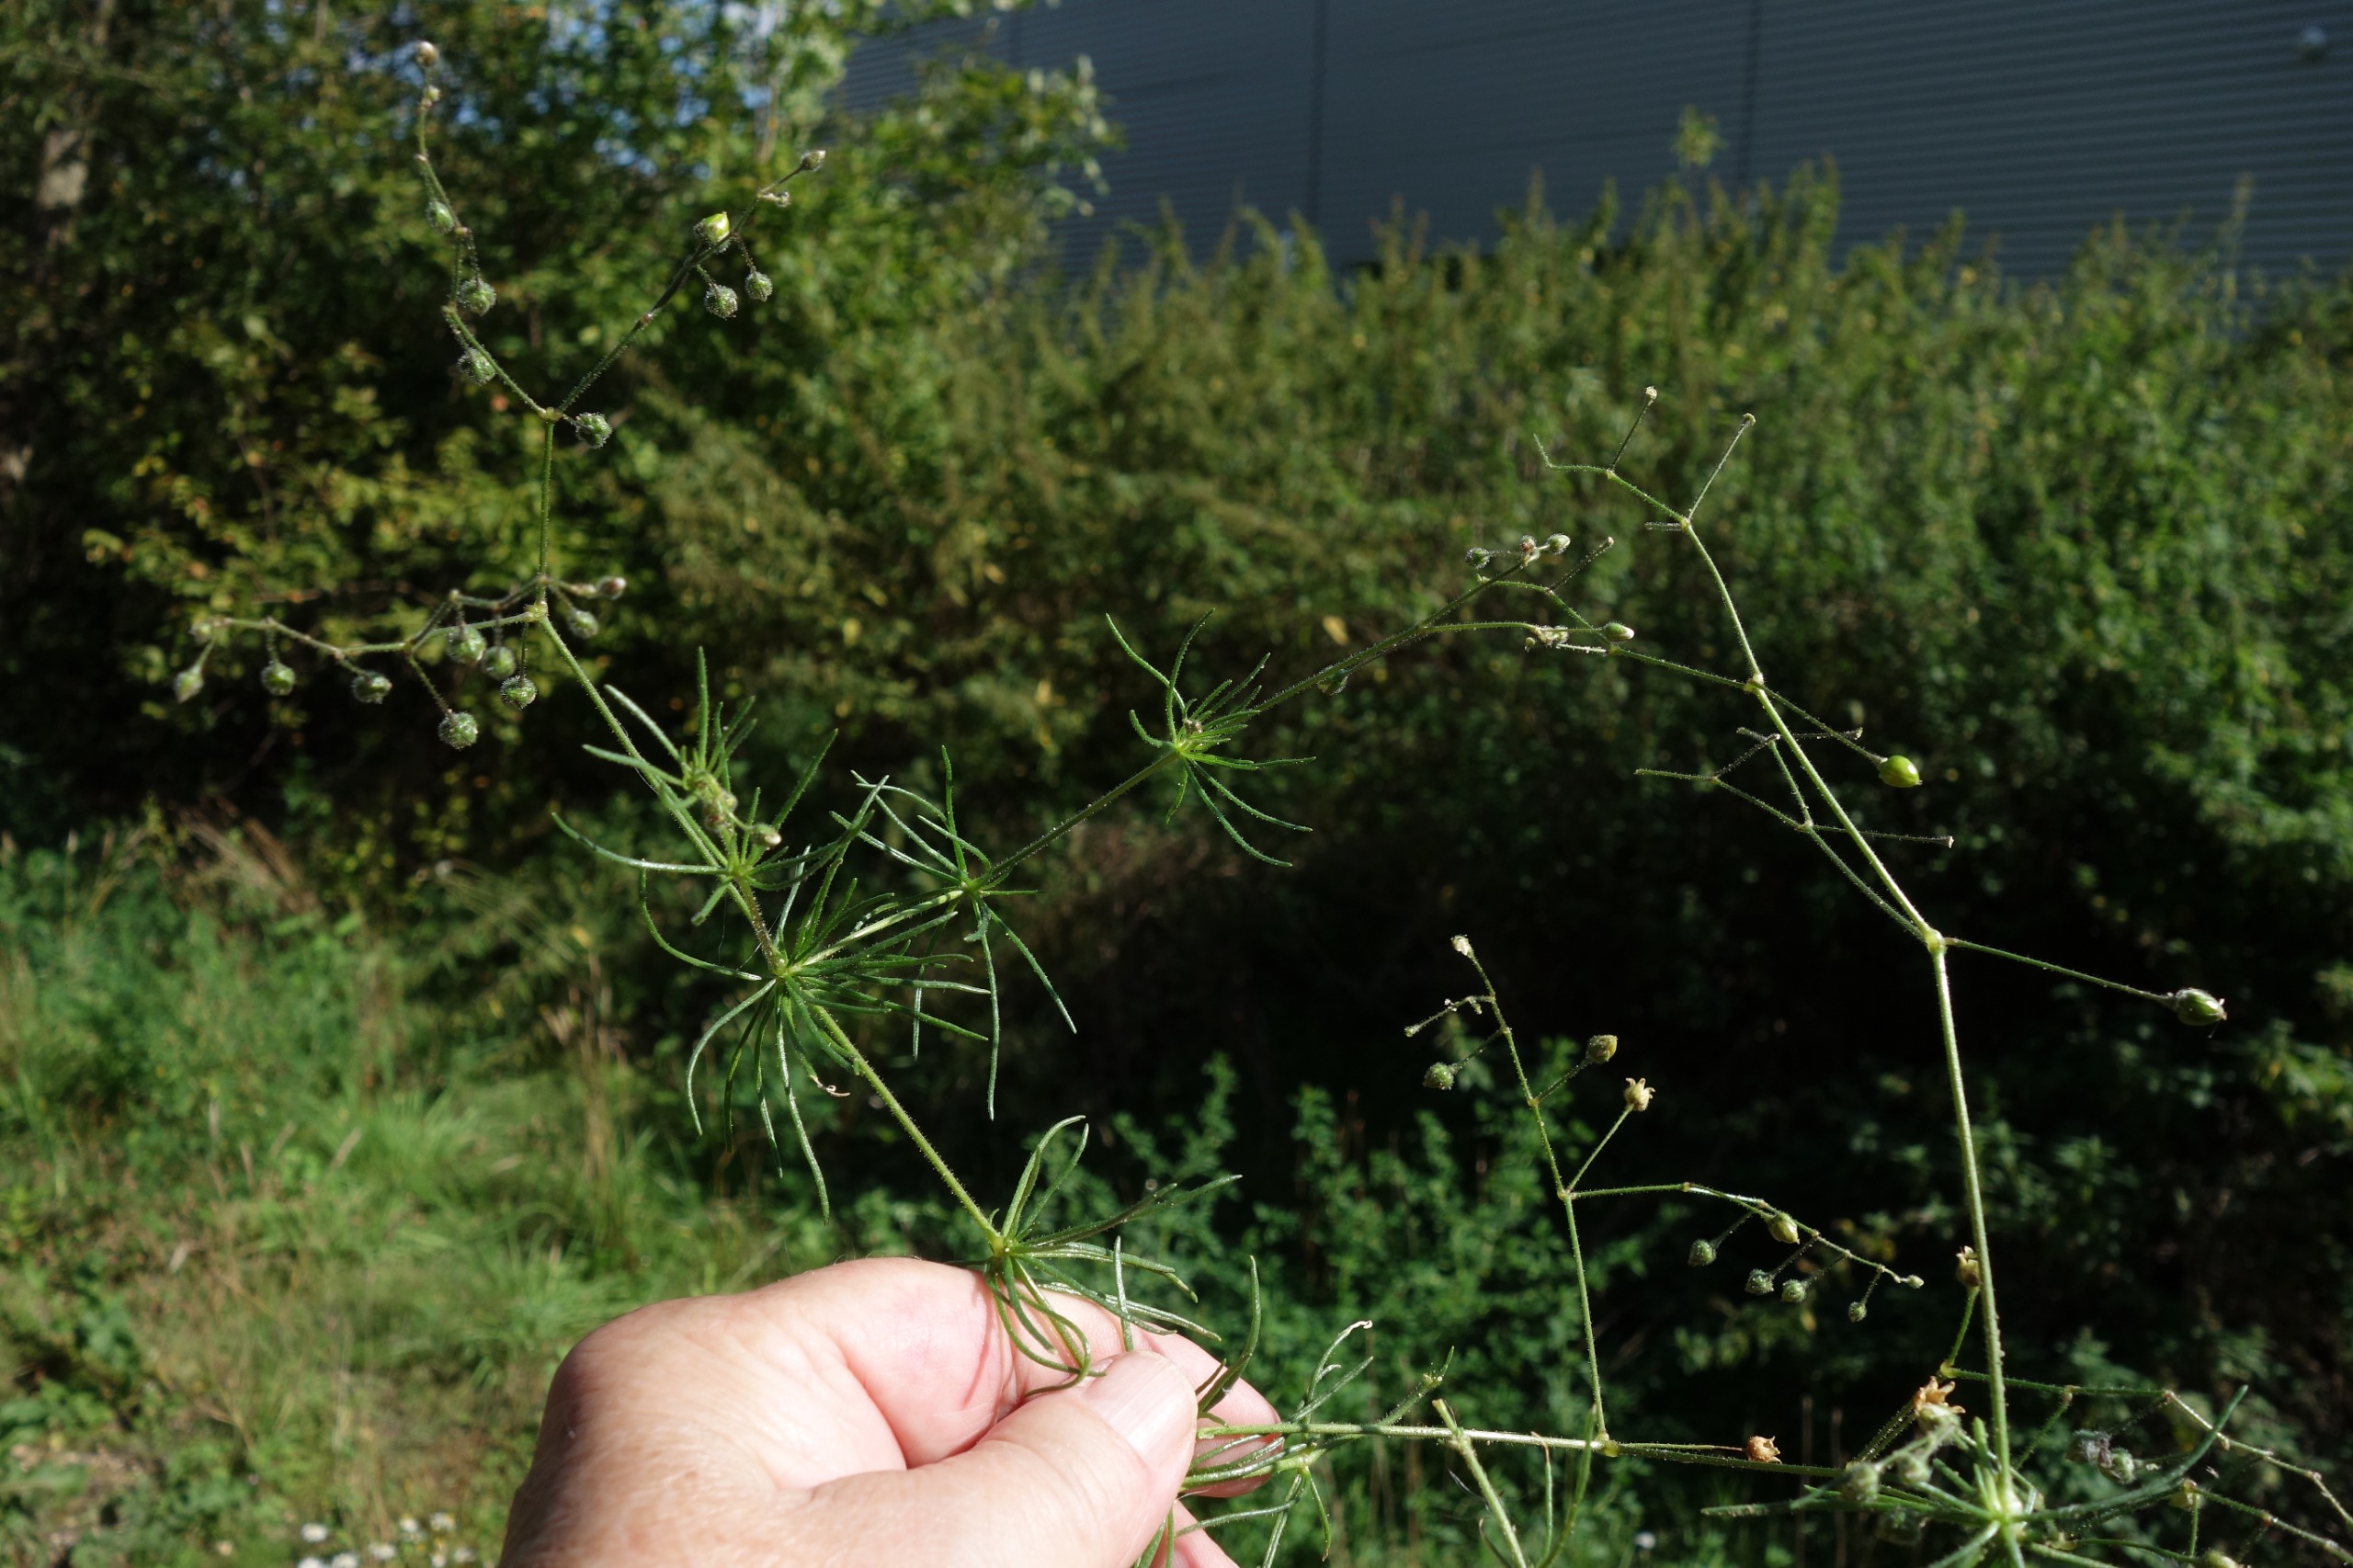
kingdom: Plantae
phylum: Tracheophyta
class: Magnoliopsida
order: Caryophyllales
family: Caryophyllaceae
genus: Spergula
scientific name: Spergula arvensis
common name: Almindelig spergel
